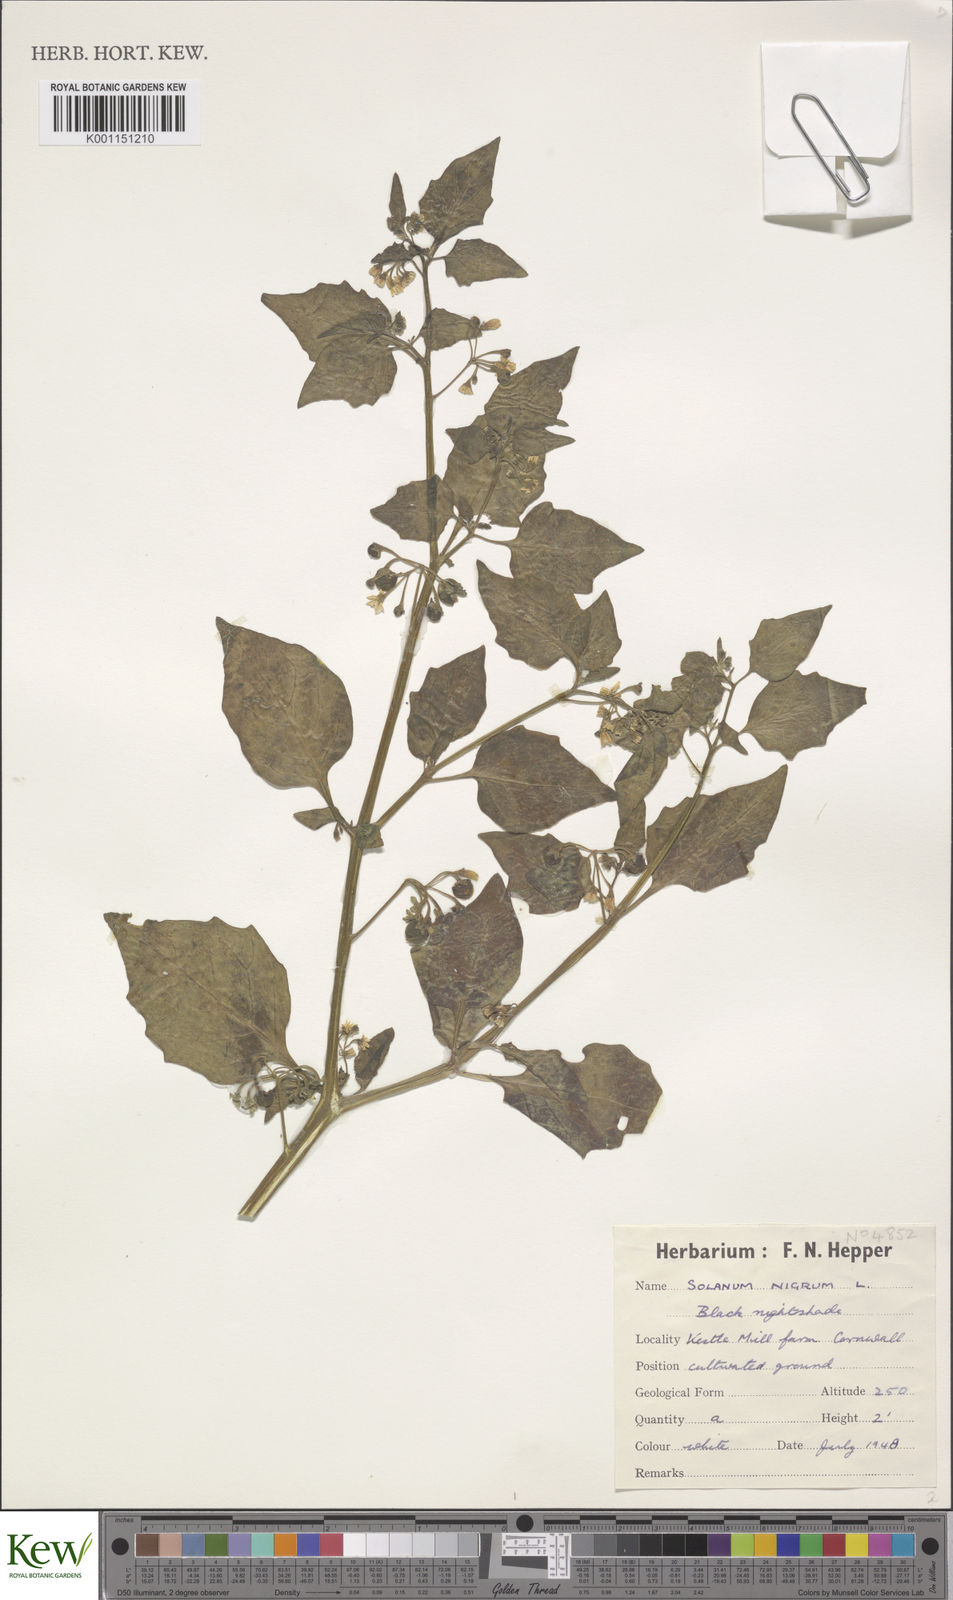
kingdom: Plantae
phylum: Tracheophyta
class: Magnoliopsida
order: Solanales
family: Solanaceae
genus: Solanum
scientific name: Solanum nigrum
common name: Black nightshade
